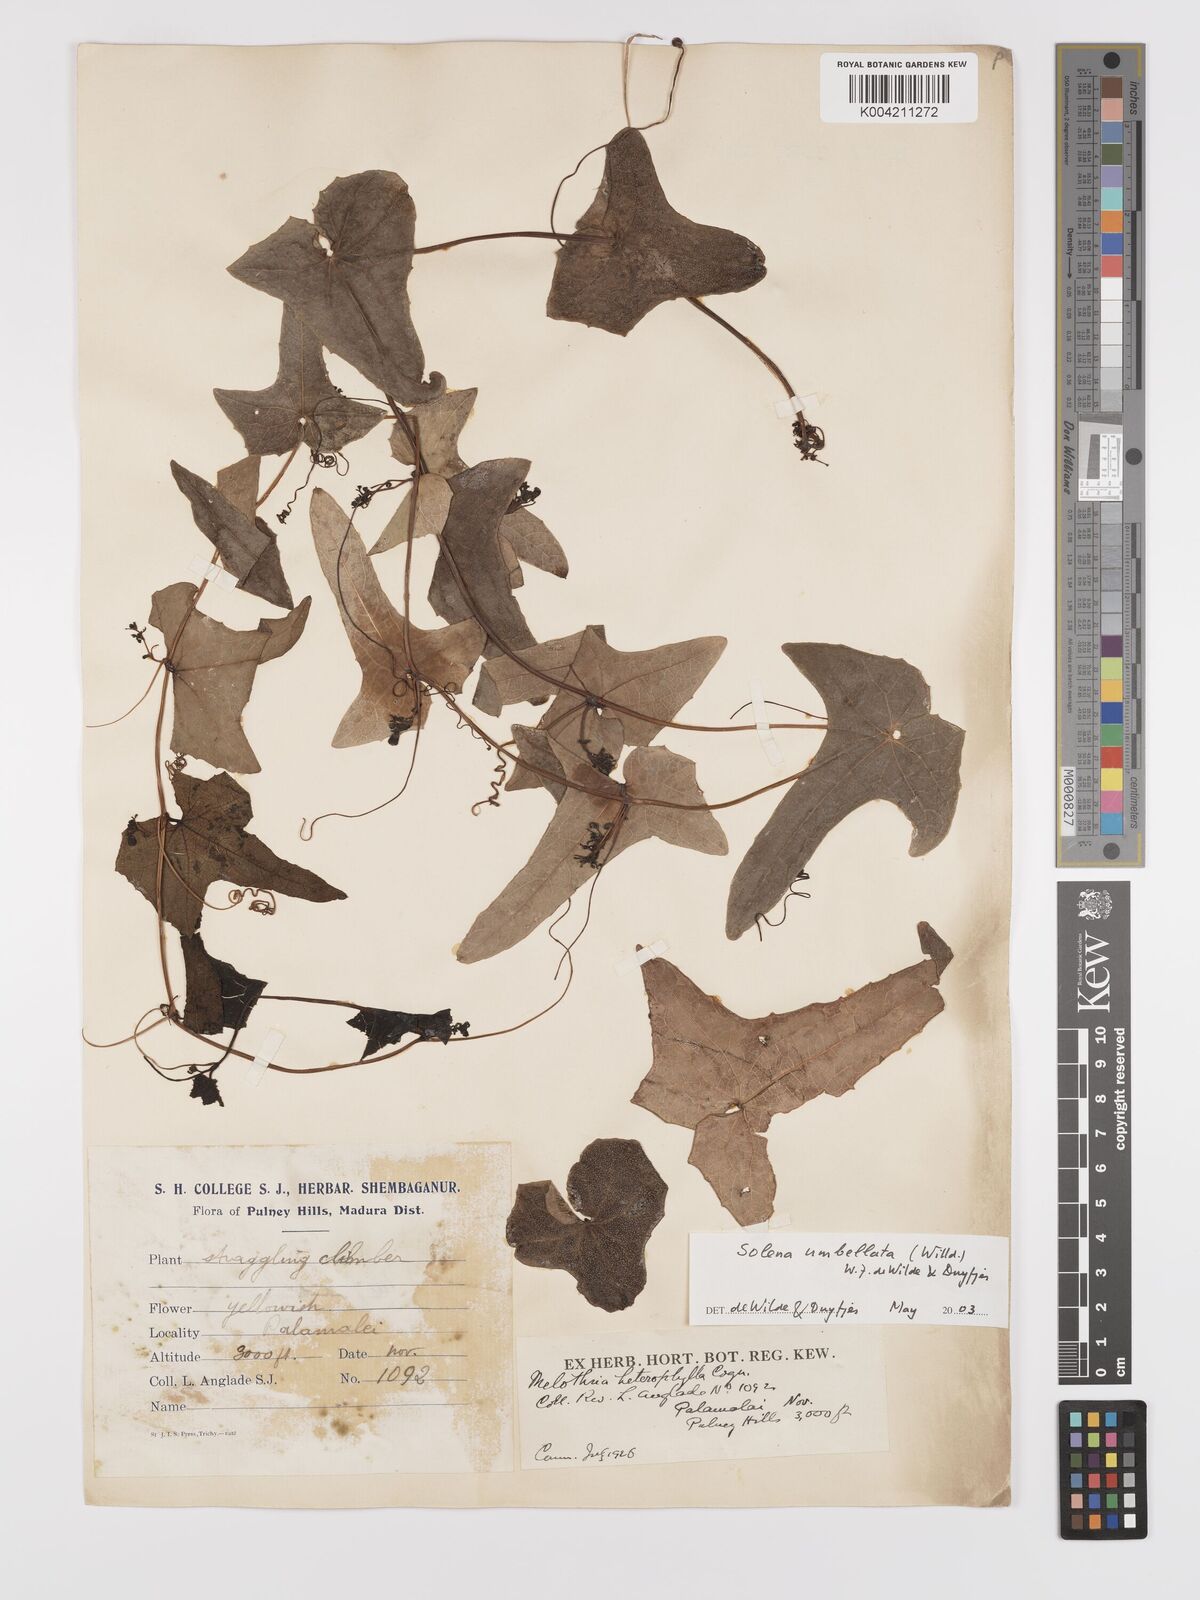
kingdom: Plantae
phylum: Tracheophyta
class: Magnoliopsida
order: Cucurbitales
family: Cucurbitaceae
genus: Solena
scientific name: Solena amplexicaulis
